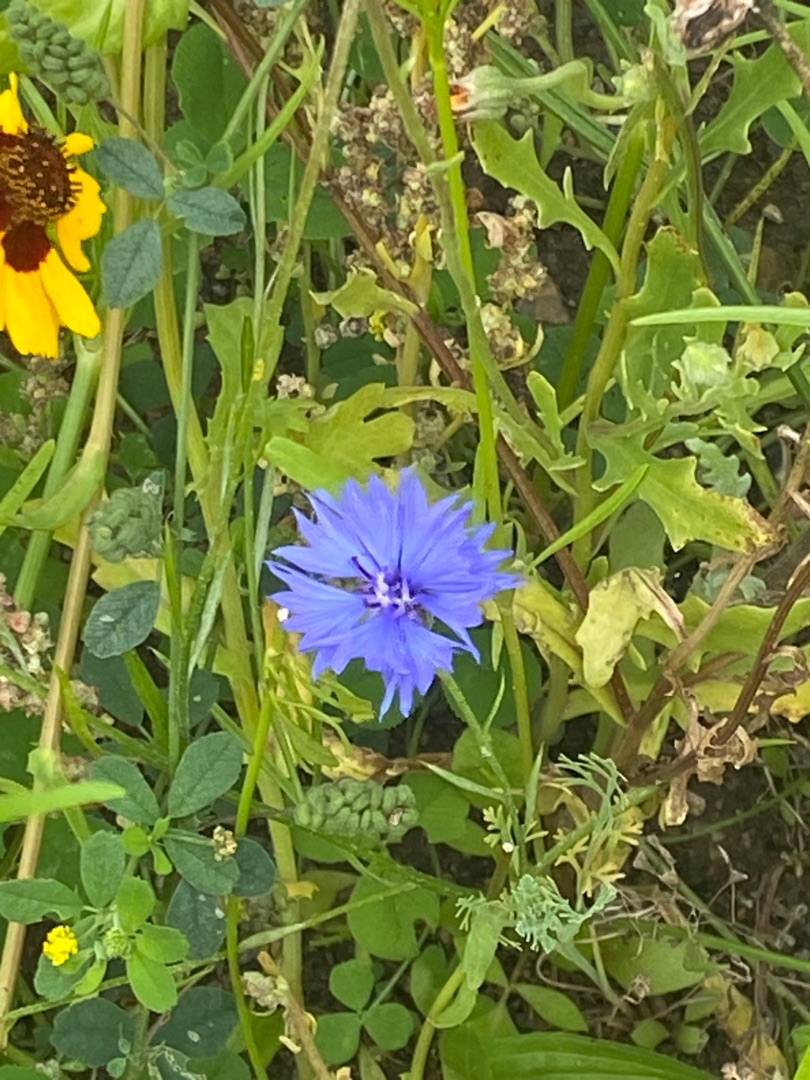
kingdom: Plantae
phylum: Tracheophyta
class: Magnoliopsida
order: Asterales
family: Asteraceae
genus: Centaurea
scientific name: Centaurea cyanus
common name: Kornblomst
